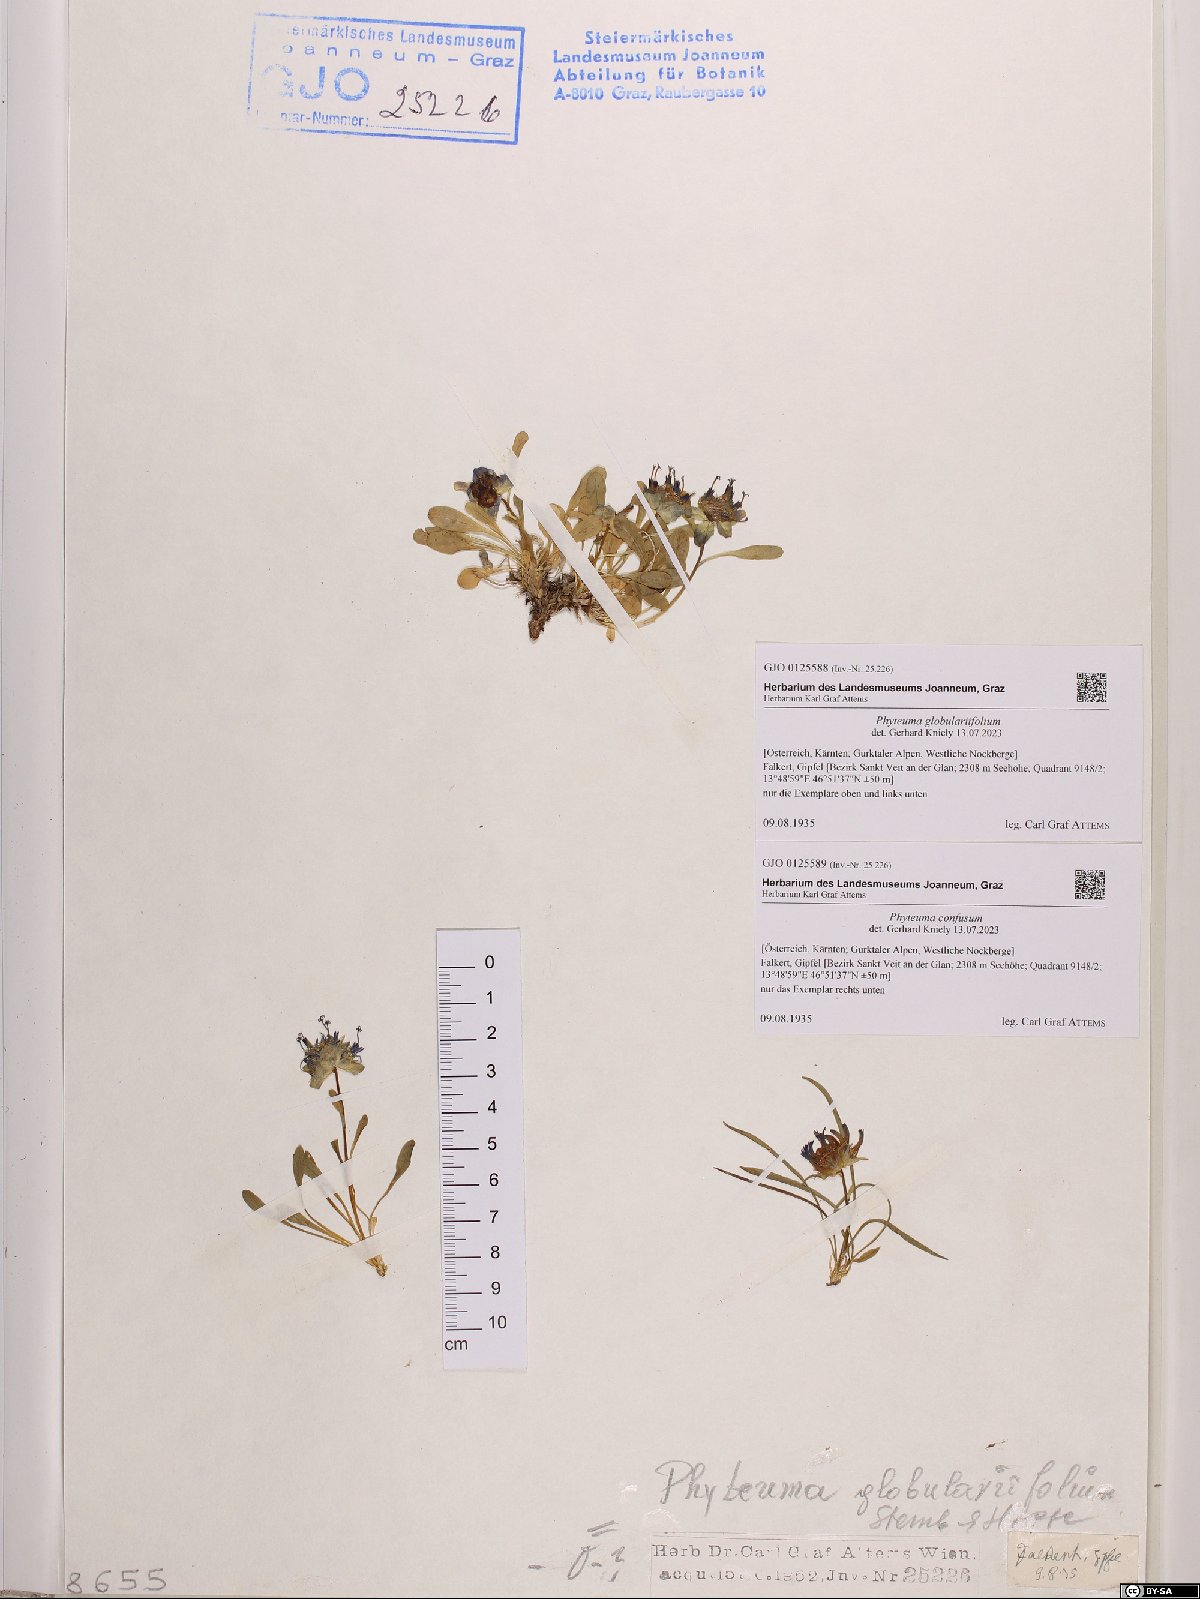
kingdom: Plantae
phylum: Tracheophyta
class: Magnoliopsida
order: Asterales
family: Campanulaceae
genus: Phyteuma
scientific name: Phyteuma confusum
